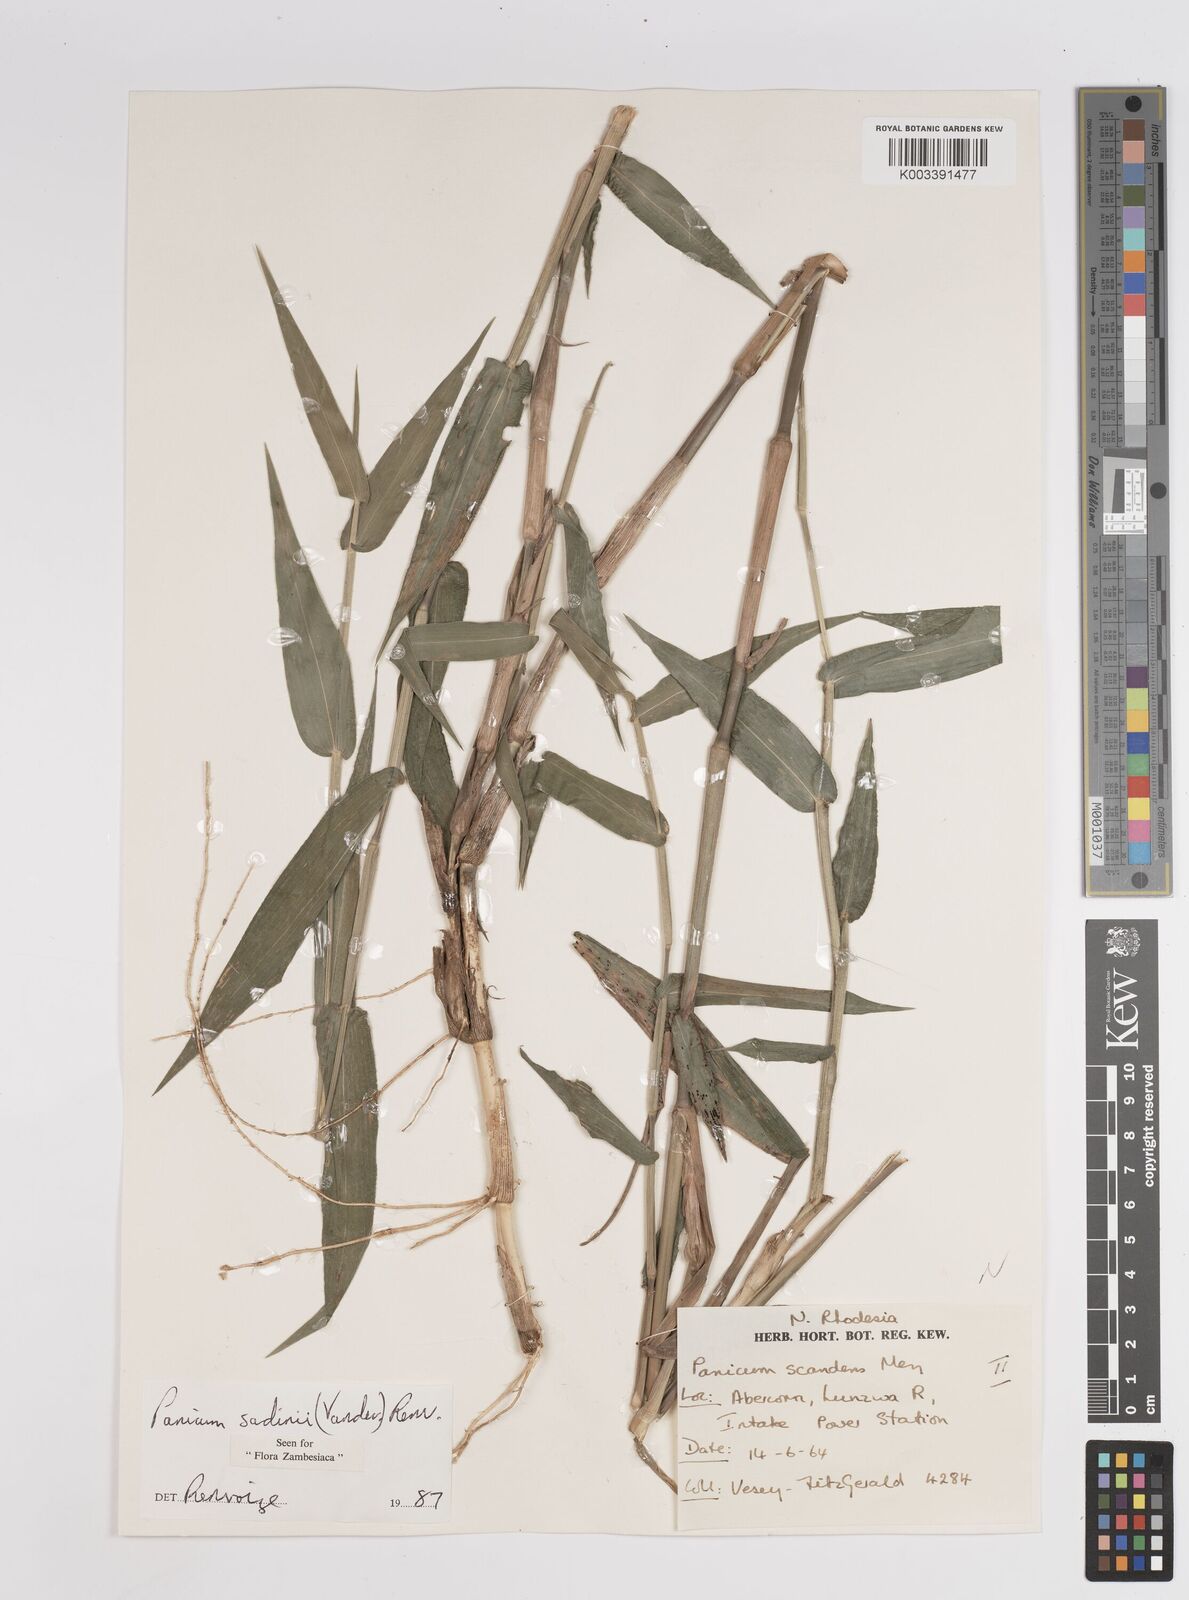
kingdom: Plantae
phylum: Tracheophyta
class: Liliopsida
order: Poales
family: Poaceae
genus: Adenochloa
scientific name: Adenochloa sadinii
